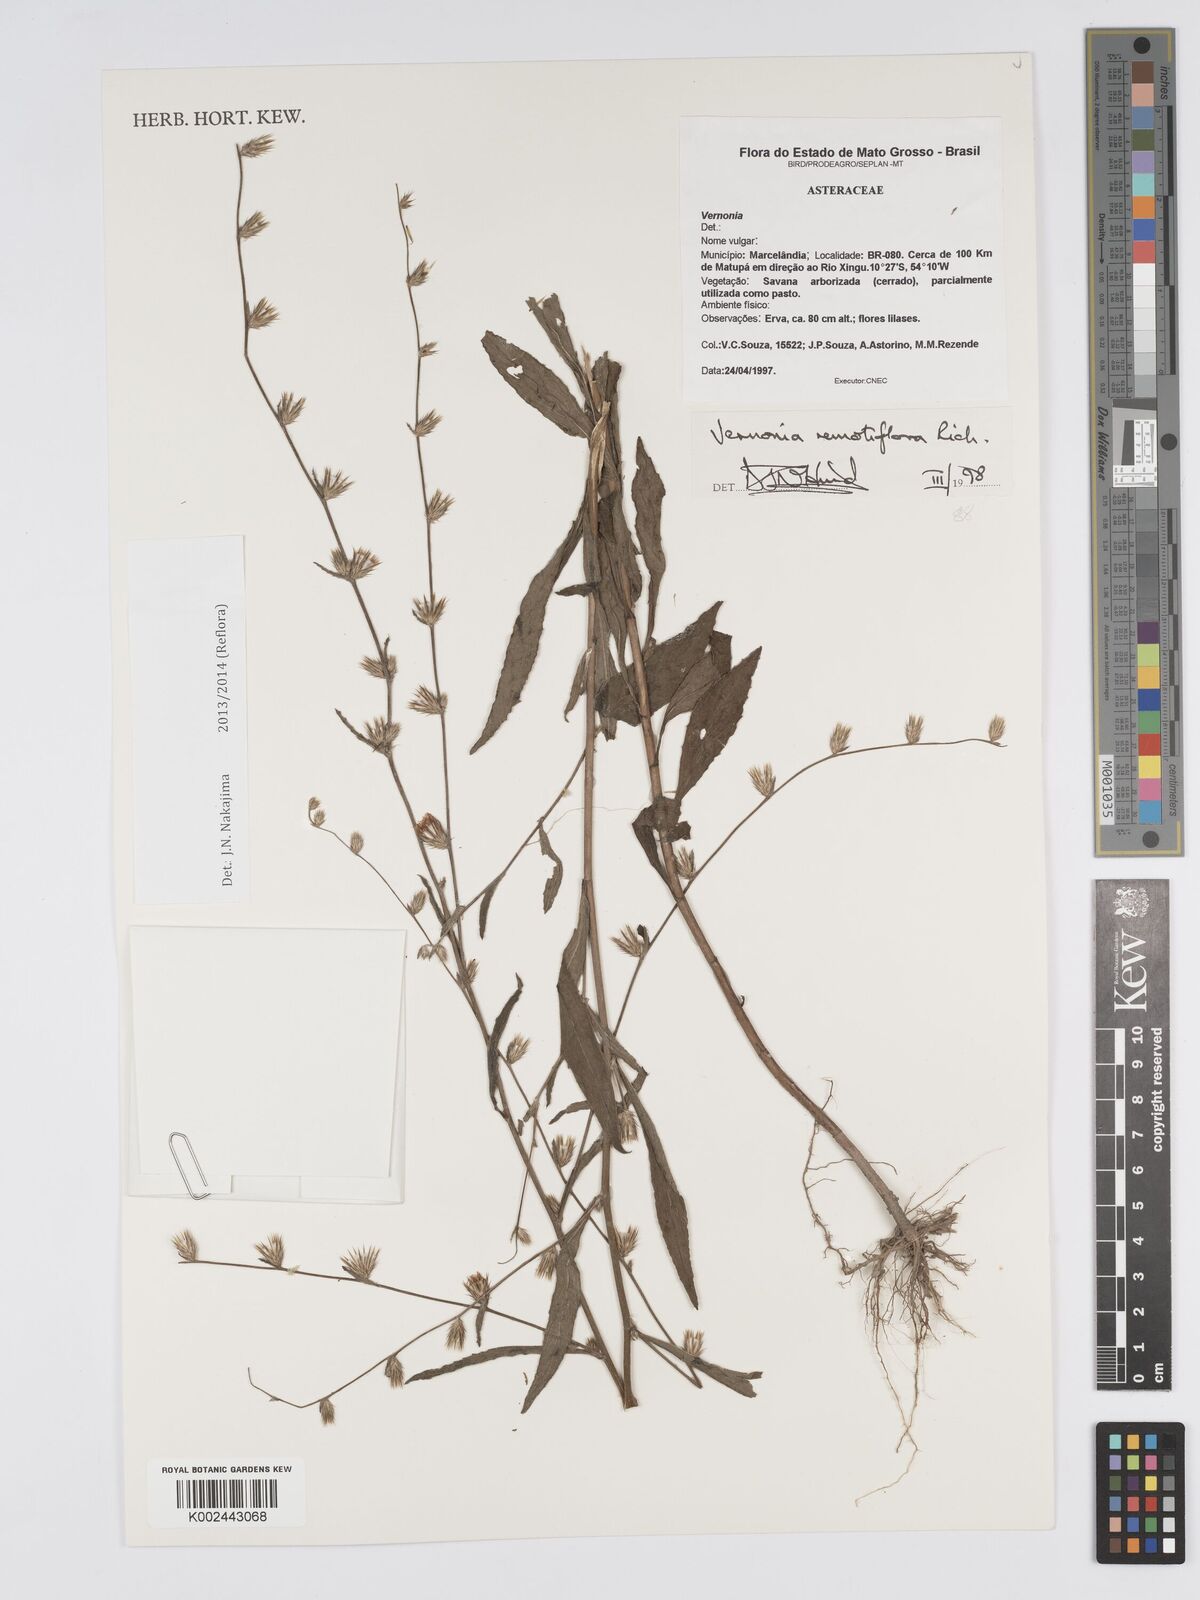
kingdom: Plantae
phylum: Tracheophyta
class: Magnoliopsida
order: Asterales
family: Asteraceae
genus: Lepidaploa
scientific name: Lepidaploa remotiflora
